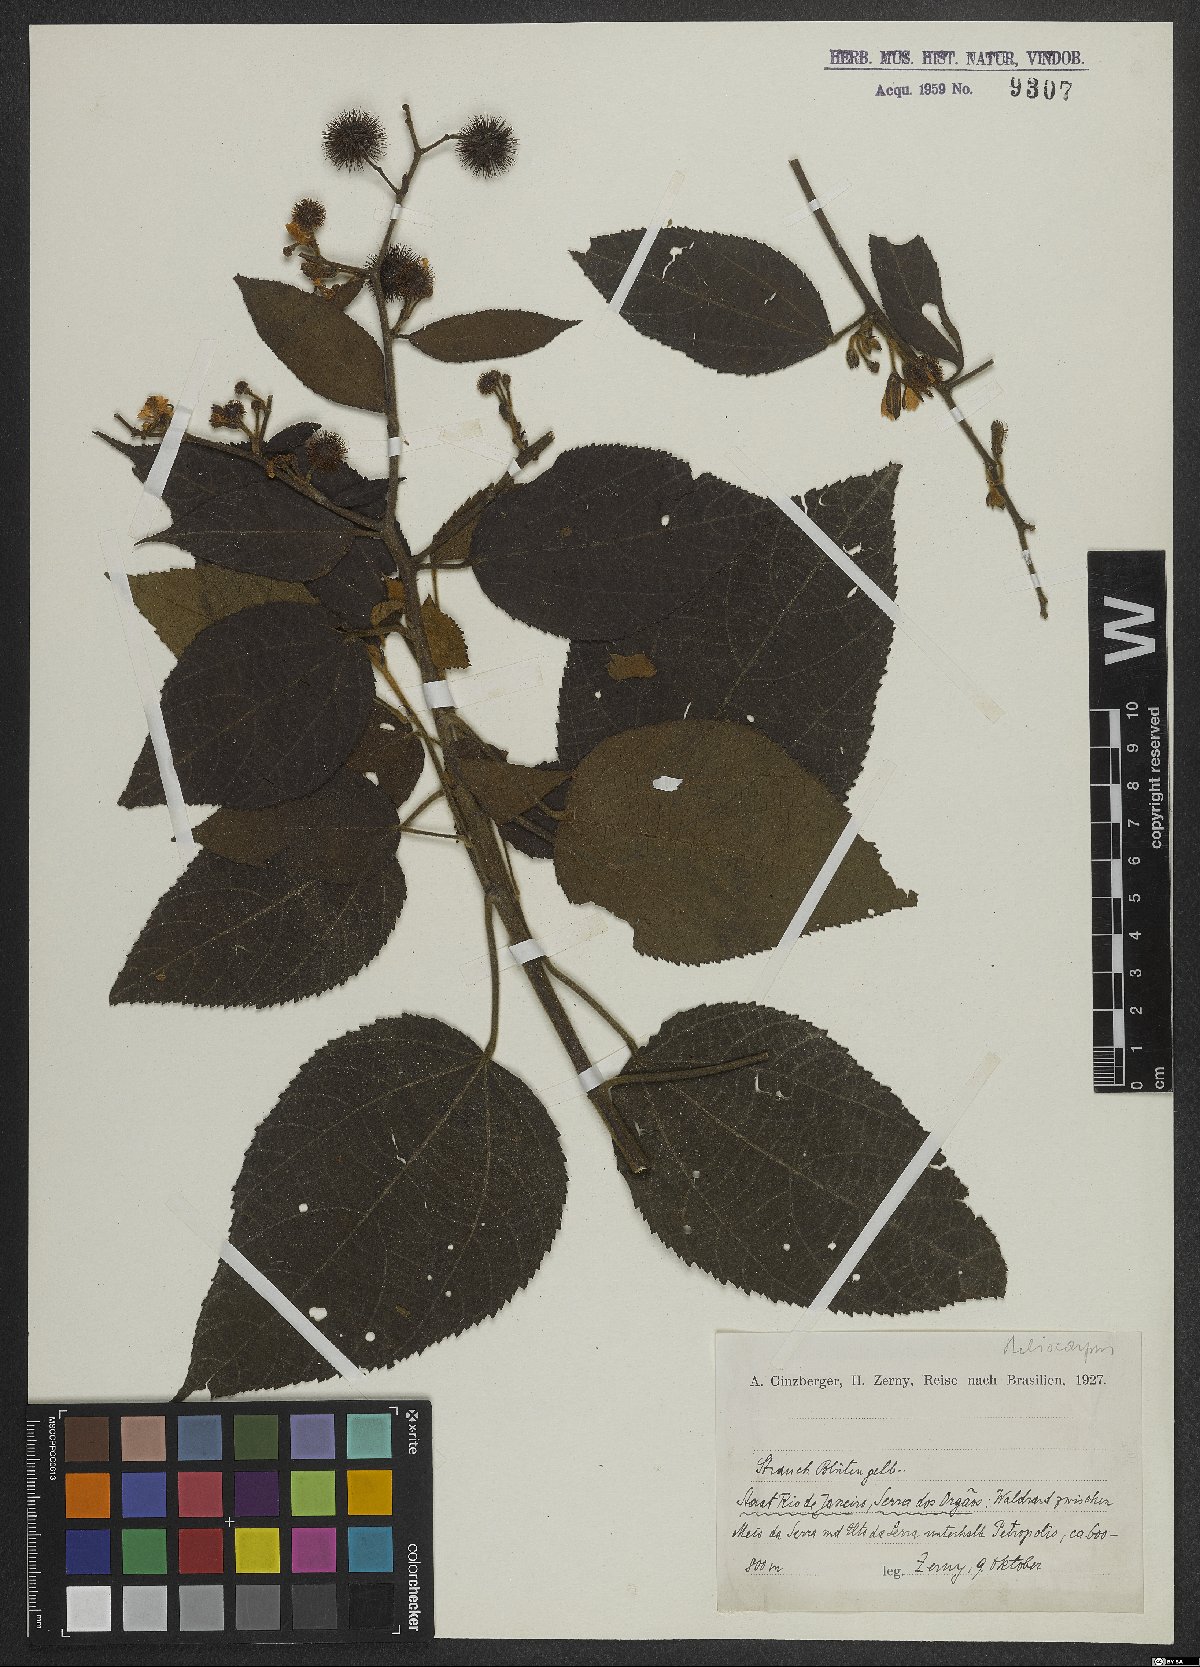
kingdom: Plantae
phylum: Tracheophyta
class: Magnoliopsida
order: Malvales
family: Malvaceae
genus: Heliocarpus
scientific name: Heliocarpus
